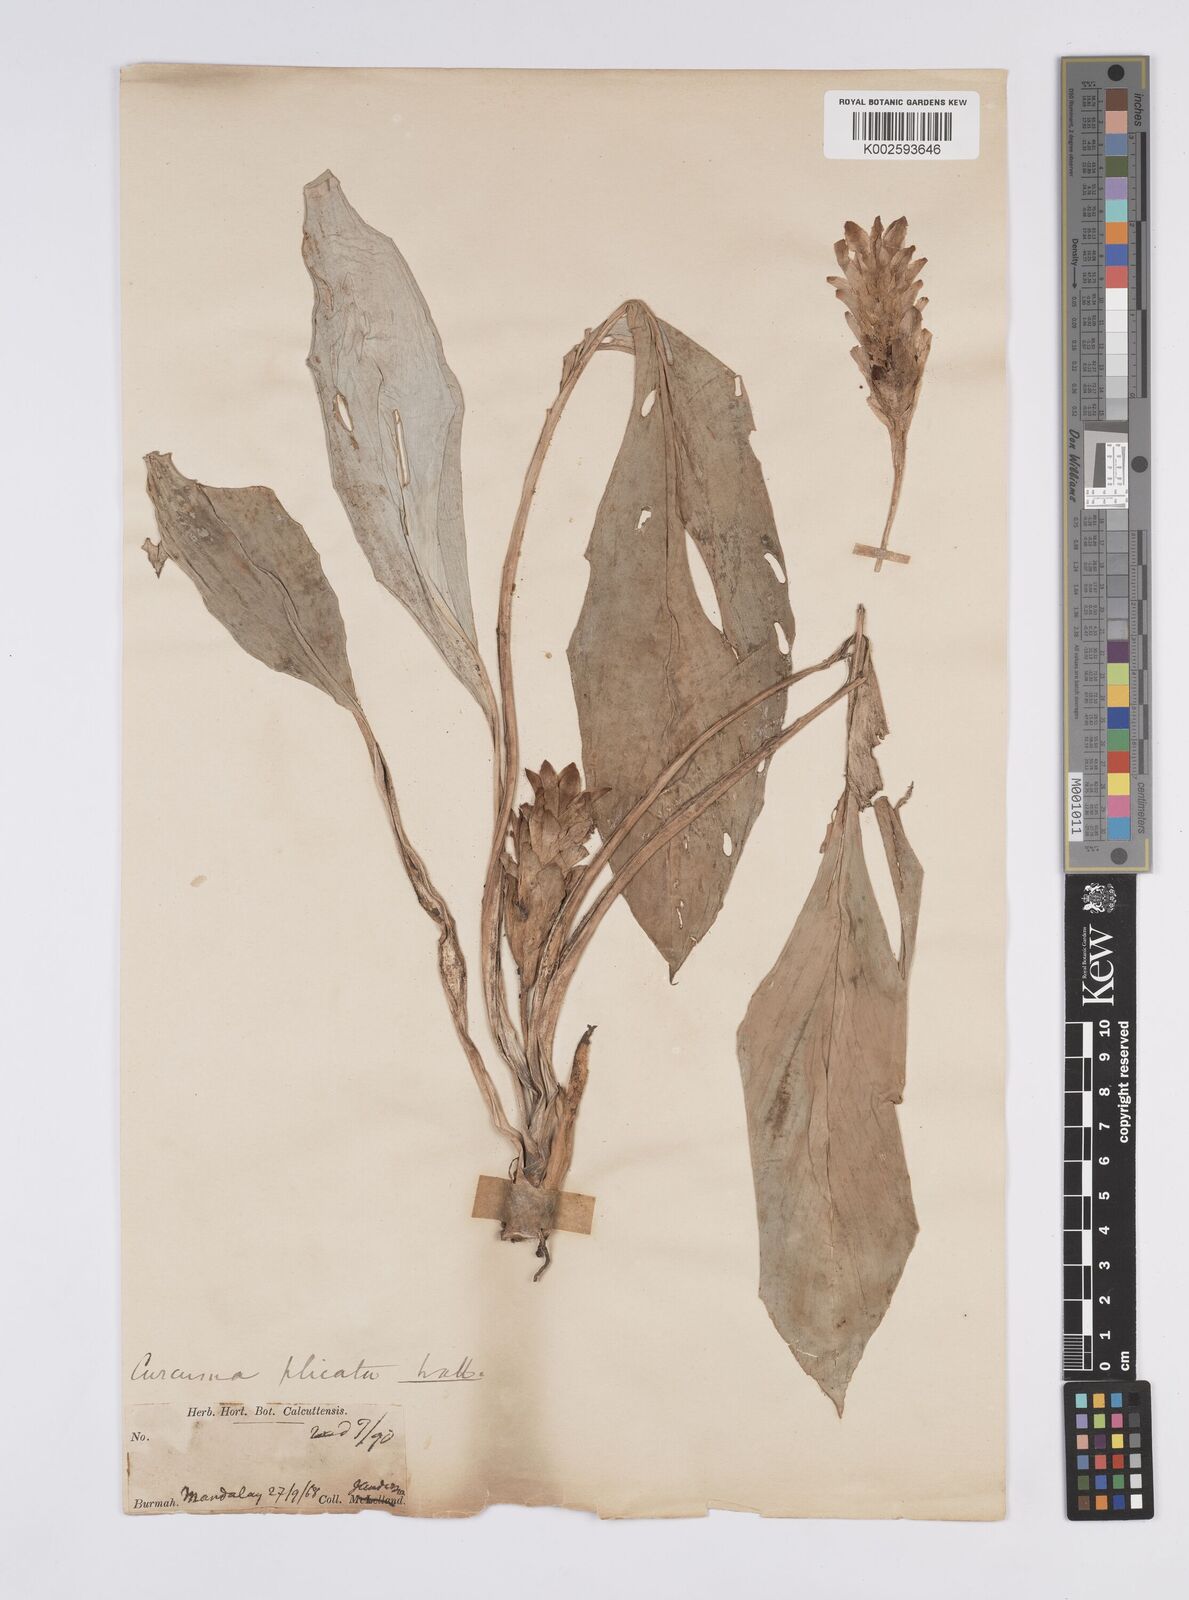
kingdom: Plantae
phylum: Tracheophyta
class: Liliopsida
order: Zingiberales
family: Zingiberaceae
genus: Curcuma
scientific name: Curcuma plicata
